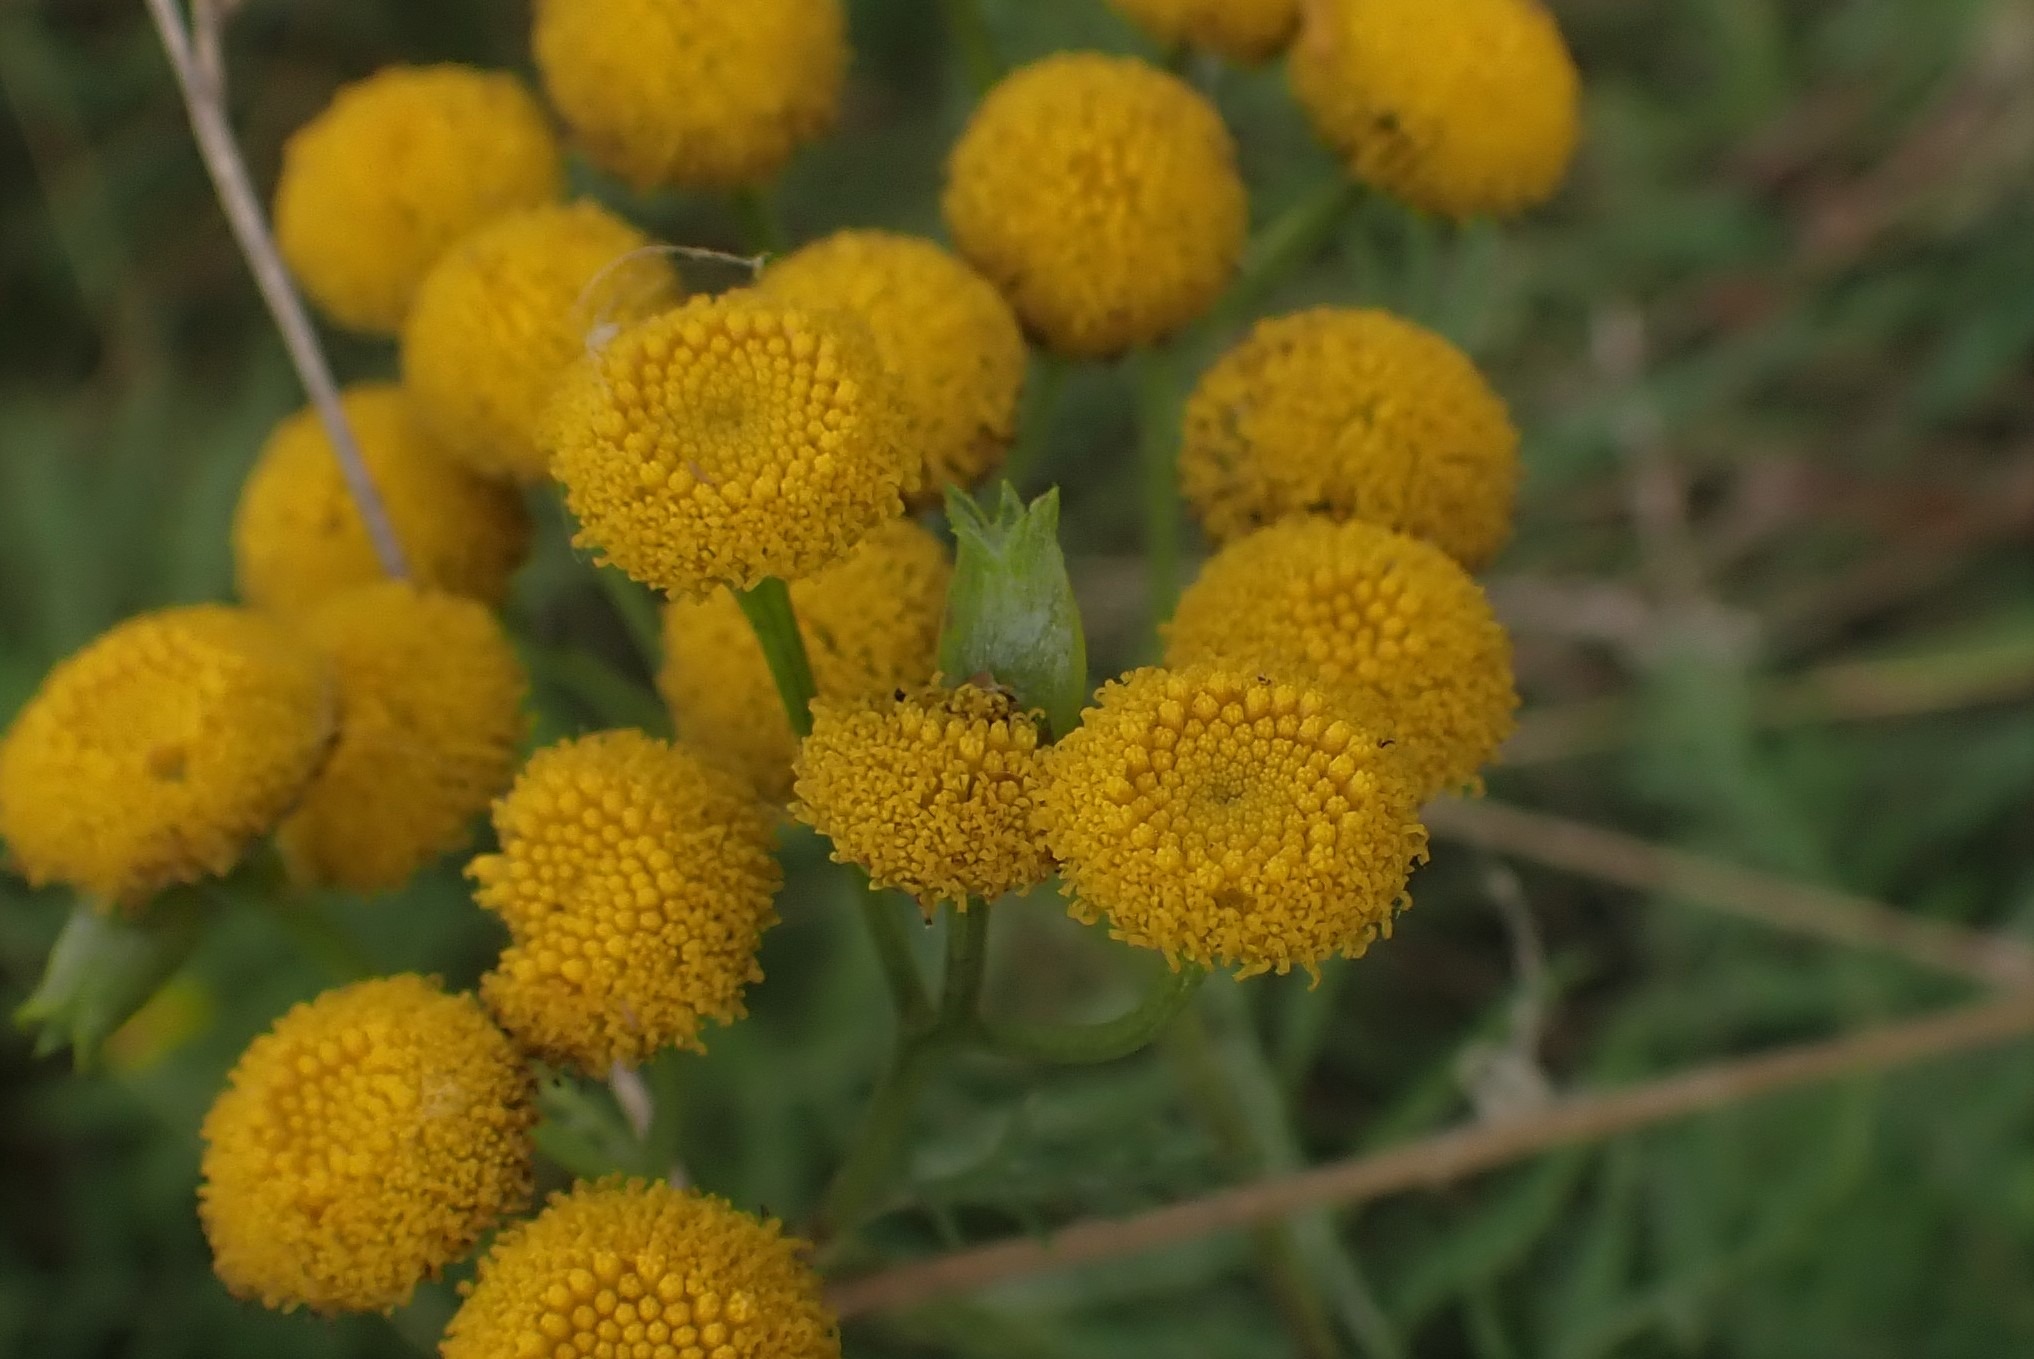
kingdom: Animalia
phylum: Arthropoda
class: Insecta
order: Diptera
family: Cecidomyiidae
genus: Rhopalomyia
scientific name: Rhopalomyia tanaceticolus
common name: Rejnfangalmyg
